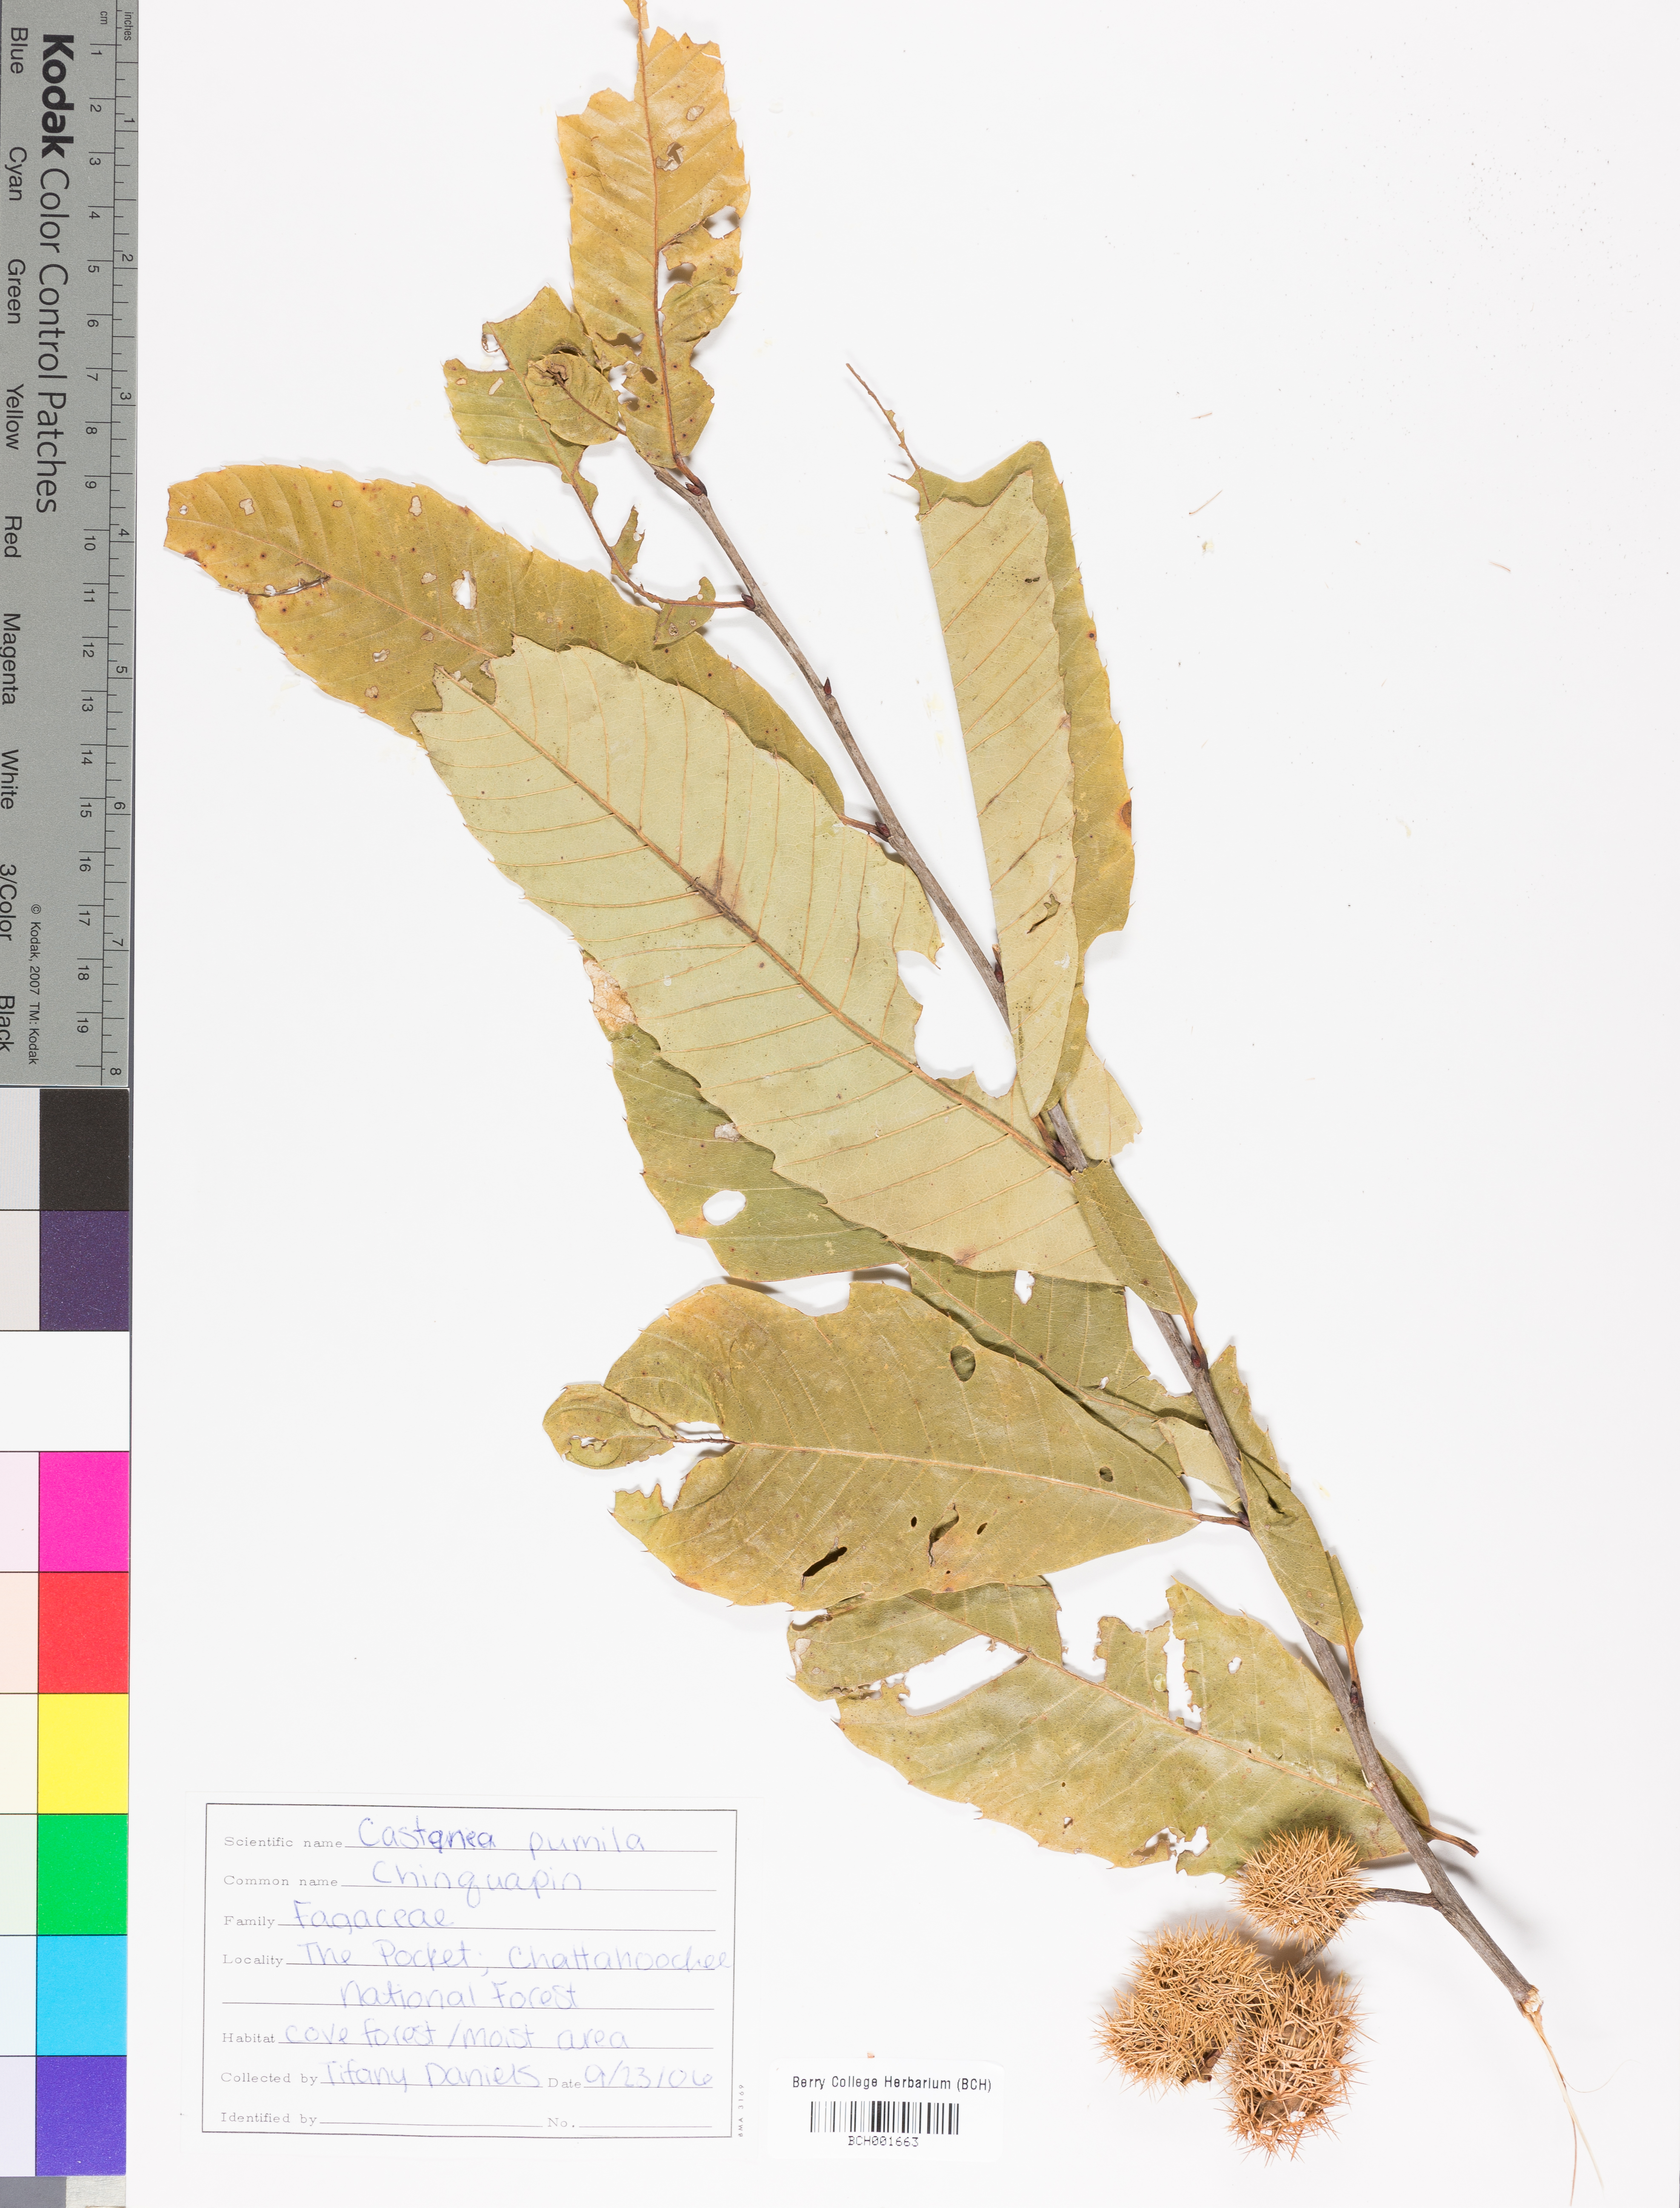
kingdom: Plantae
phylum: Tracheophyta
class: Magnoliopsida
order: Fagales
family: Fagaceae
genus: Castanea
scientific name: Castanea pumila
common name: Chinkapin
